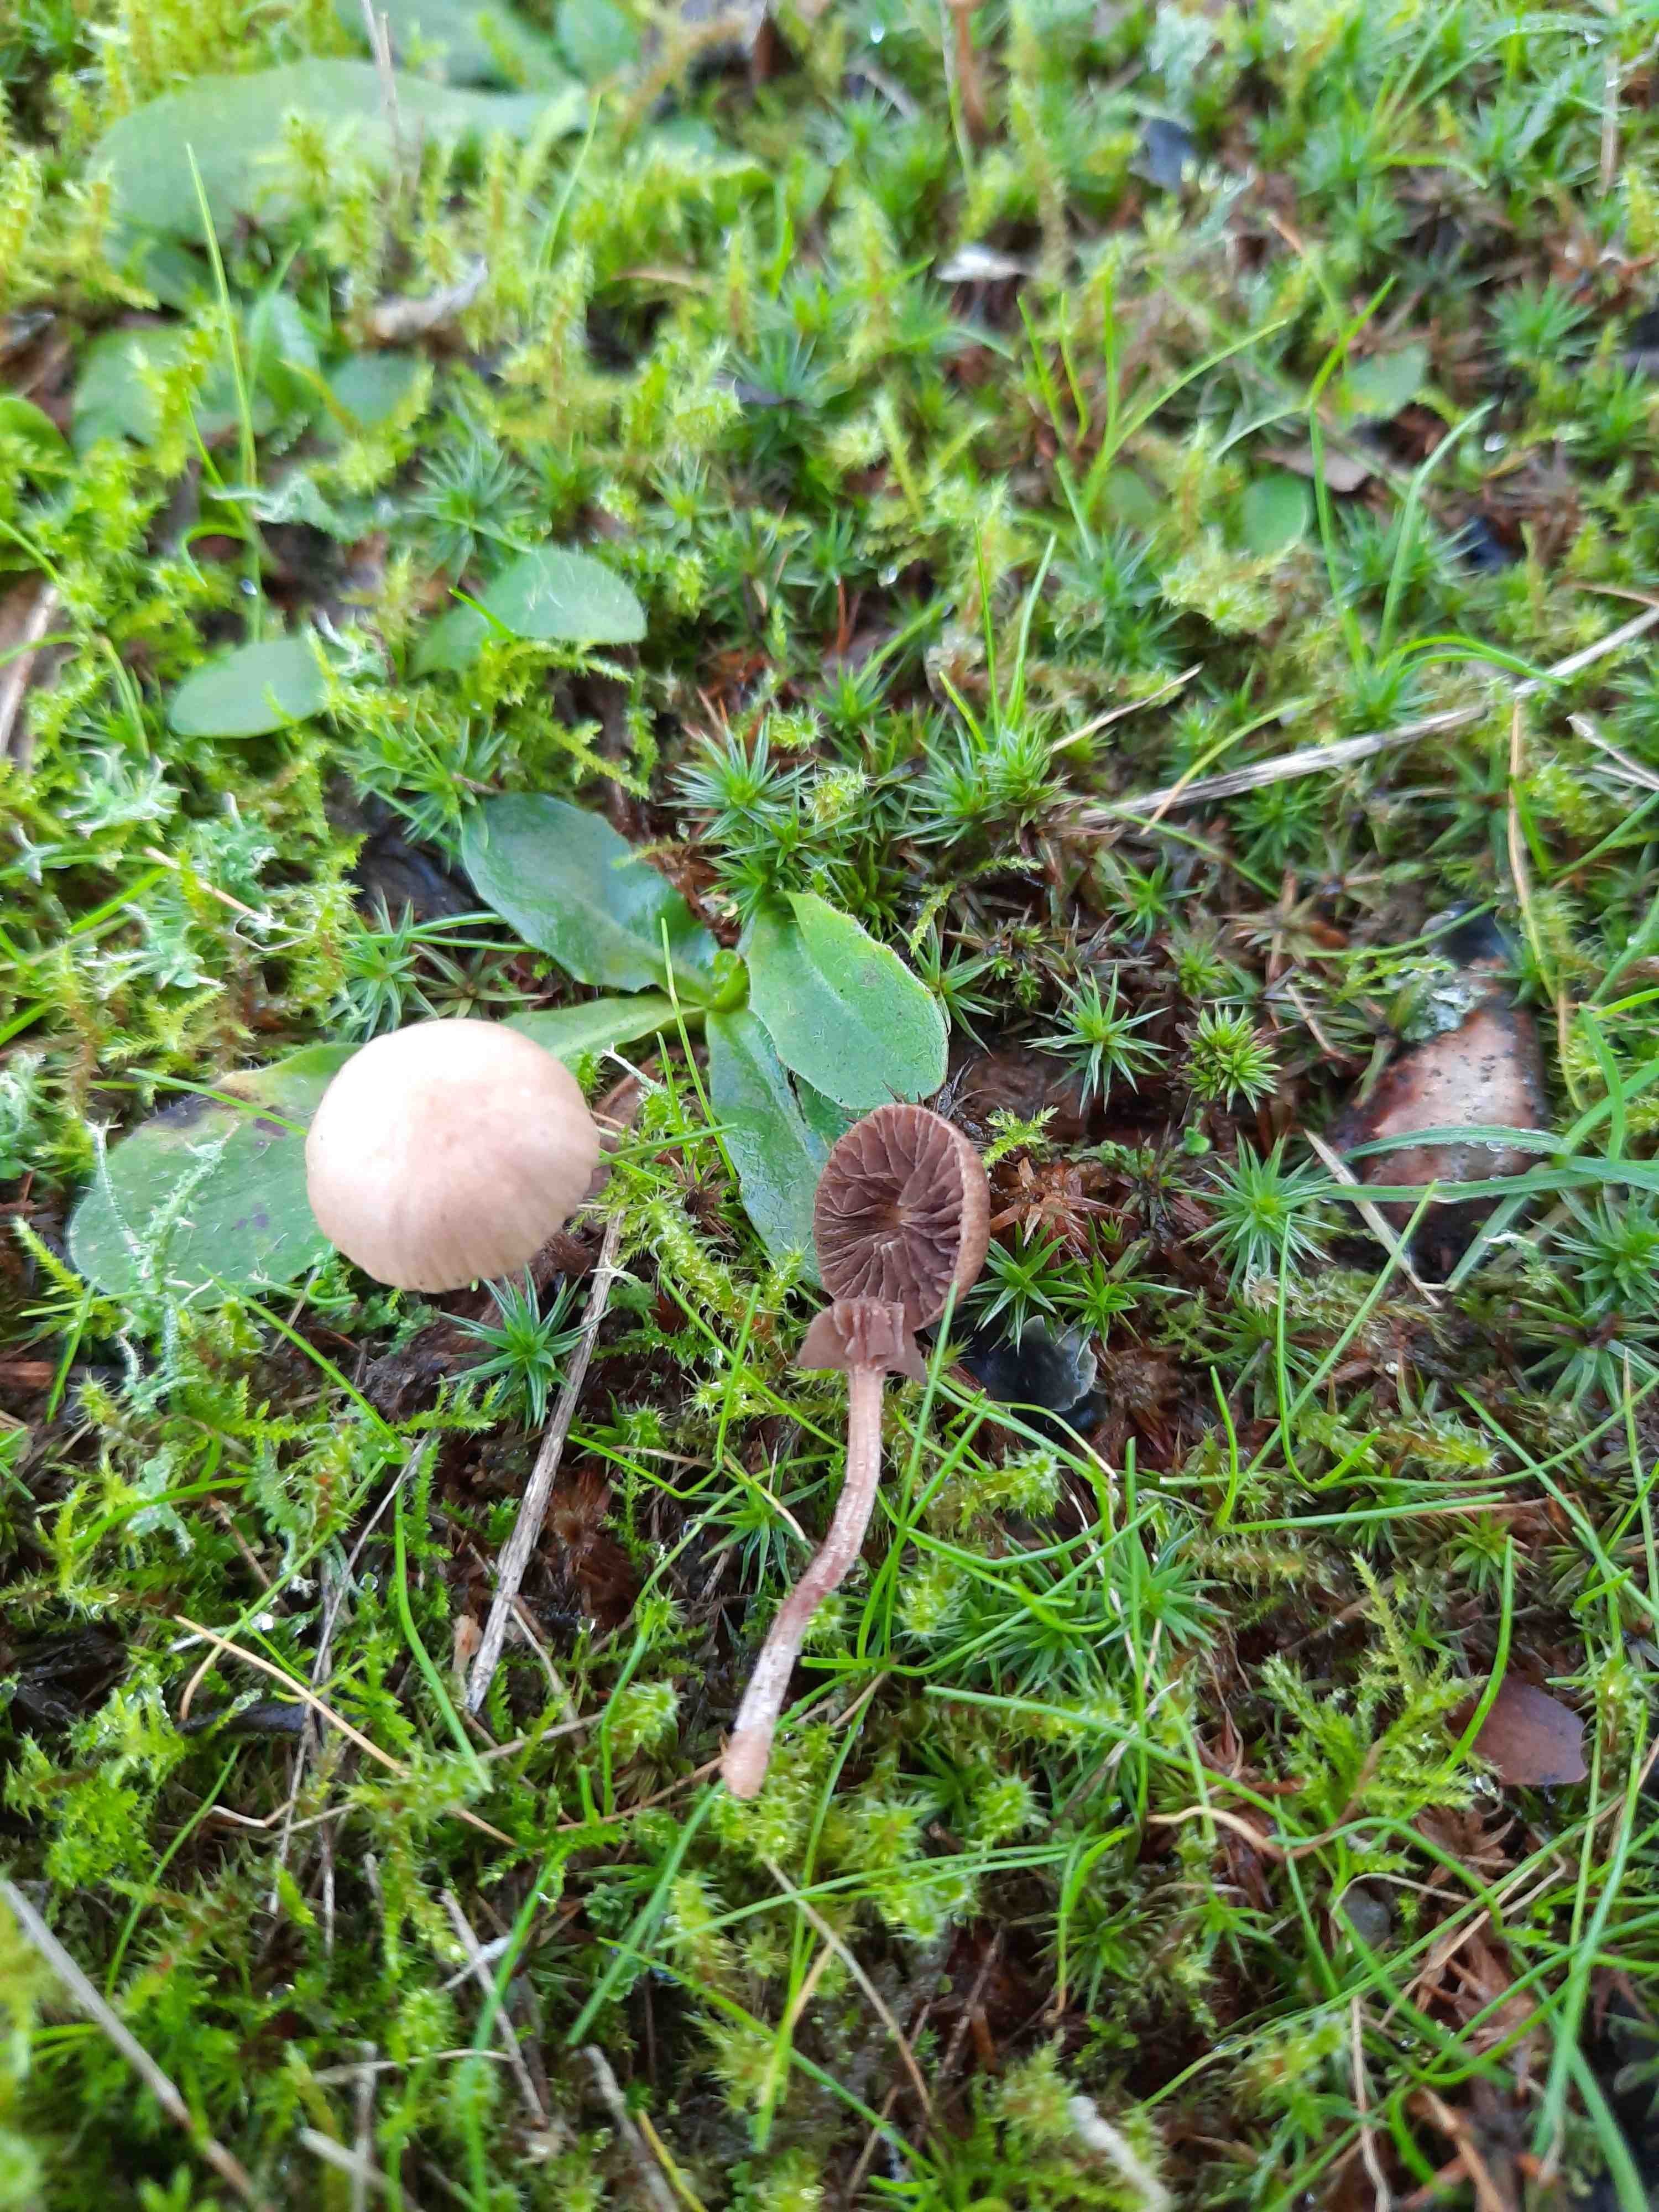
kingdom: Fungi
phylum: Basidiomycota
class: Agaricomycetes
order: Agaricales
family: Strophariaceae
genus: Deconica
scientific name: Deconica montana
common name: rødbrun stråhat
